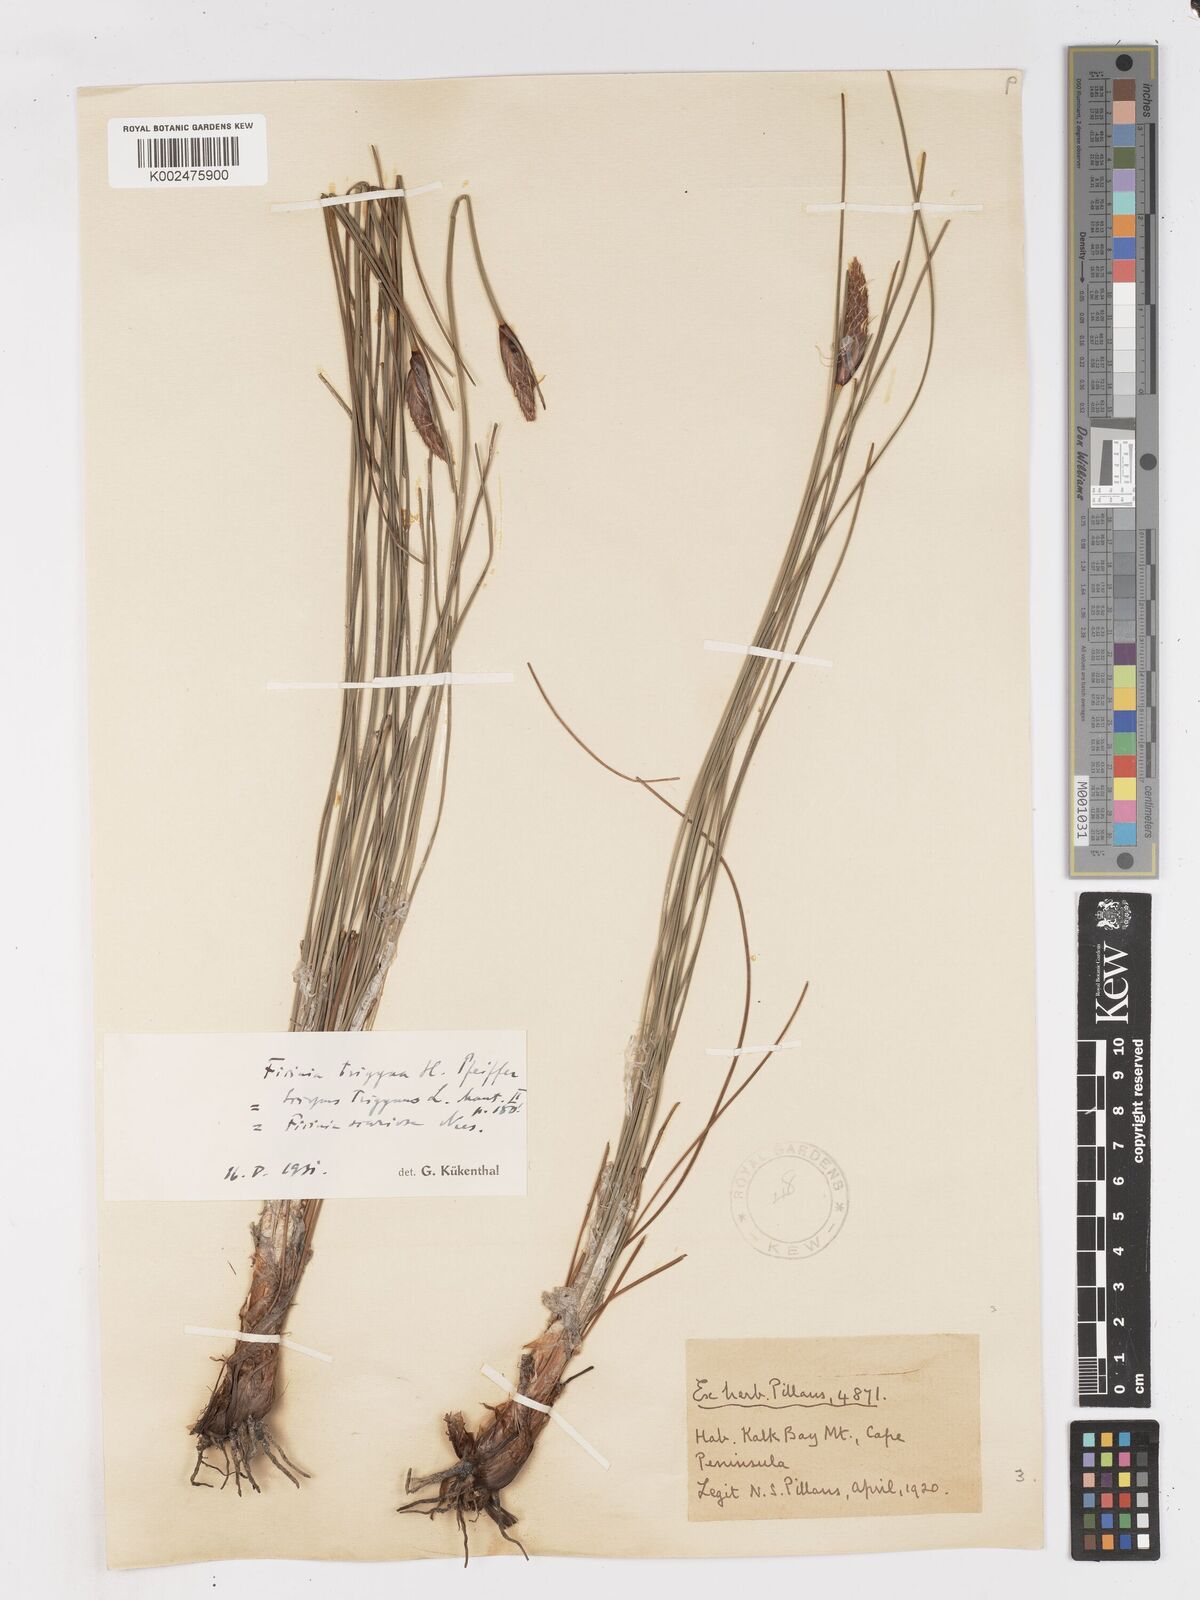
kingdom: Plantae
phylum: Tracheophyta
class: Liliopsida
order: Poales
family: Cyperaceae
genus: Ficinia
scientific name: Ficinia deusta
